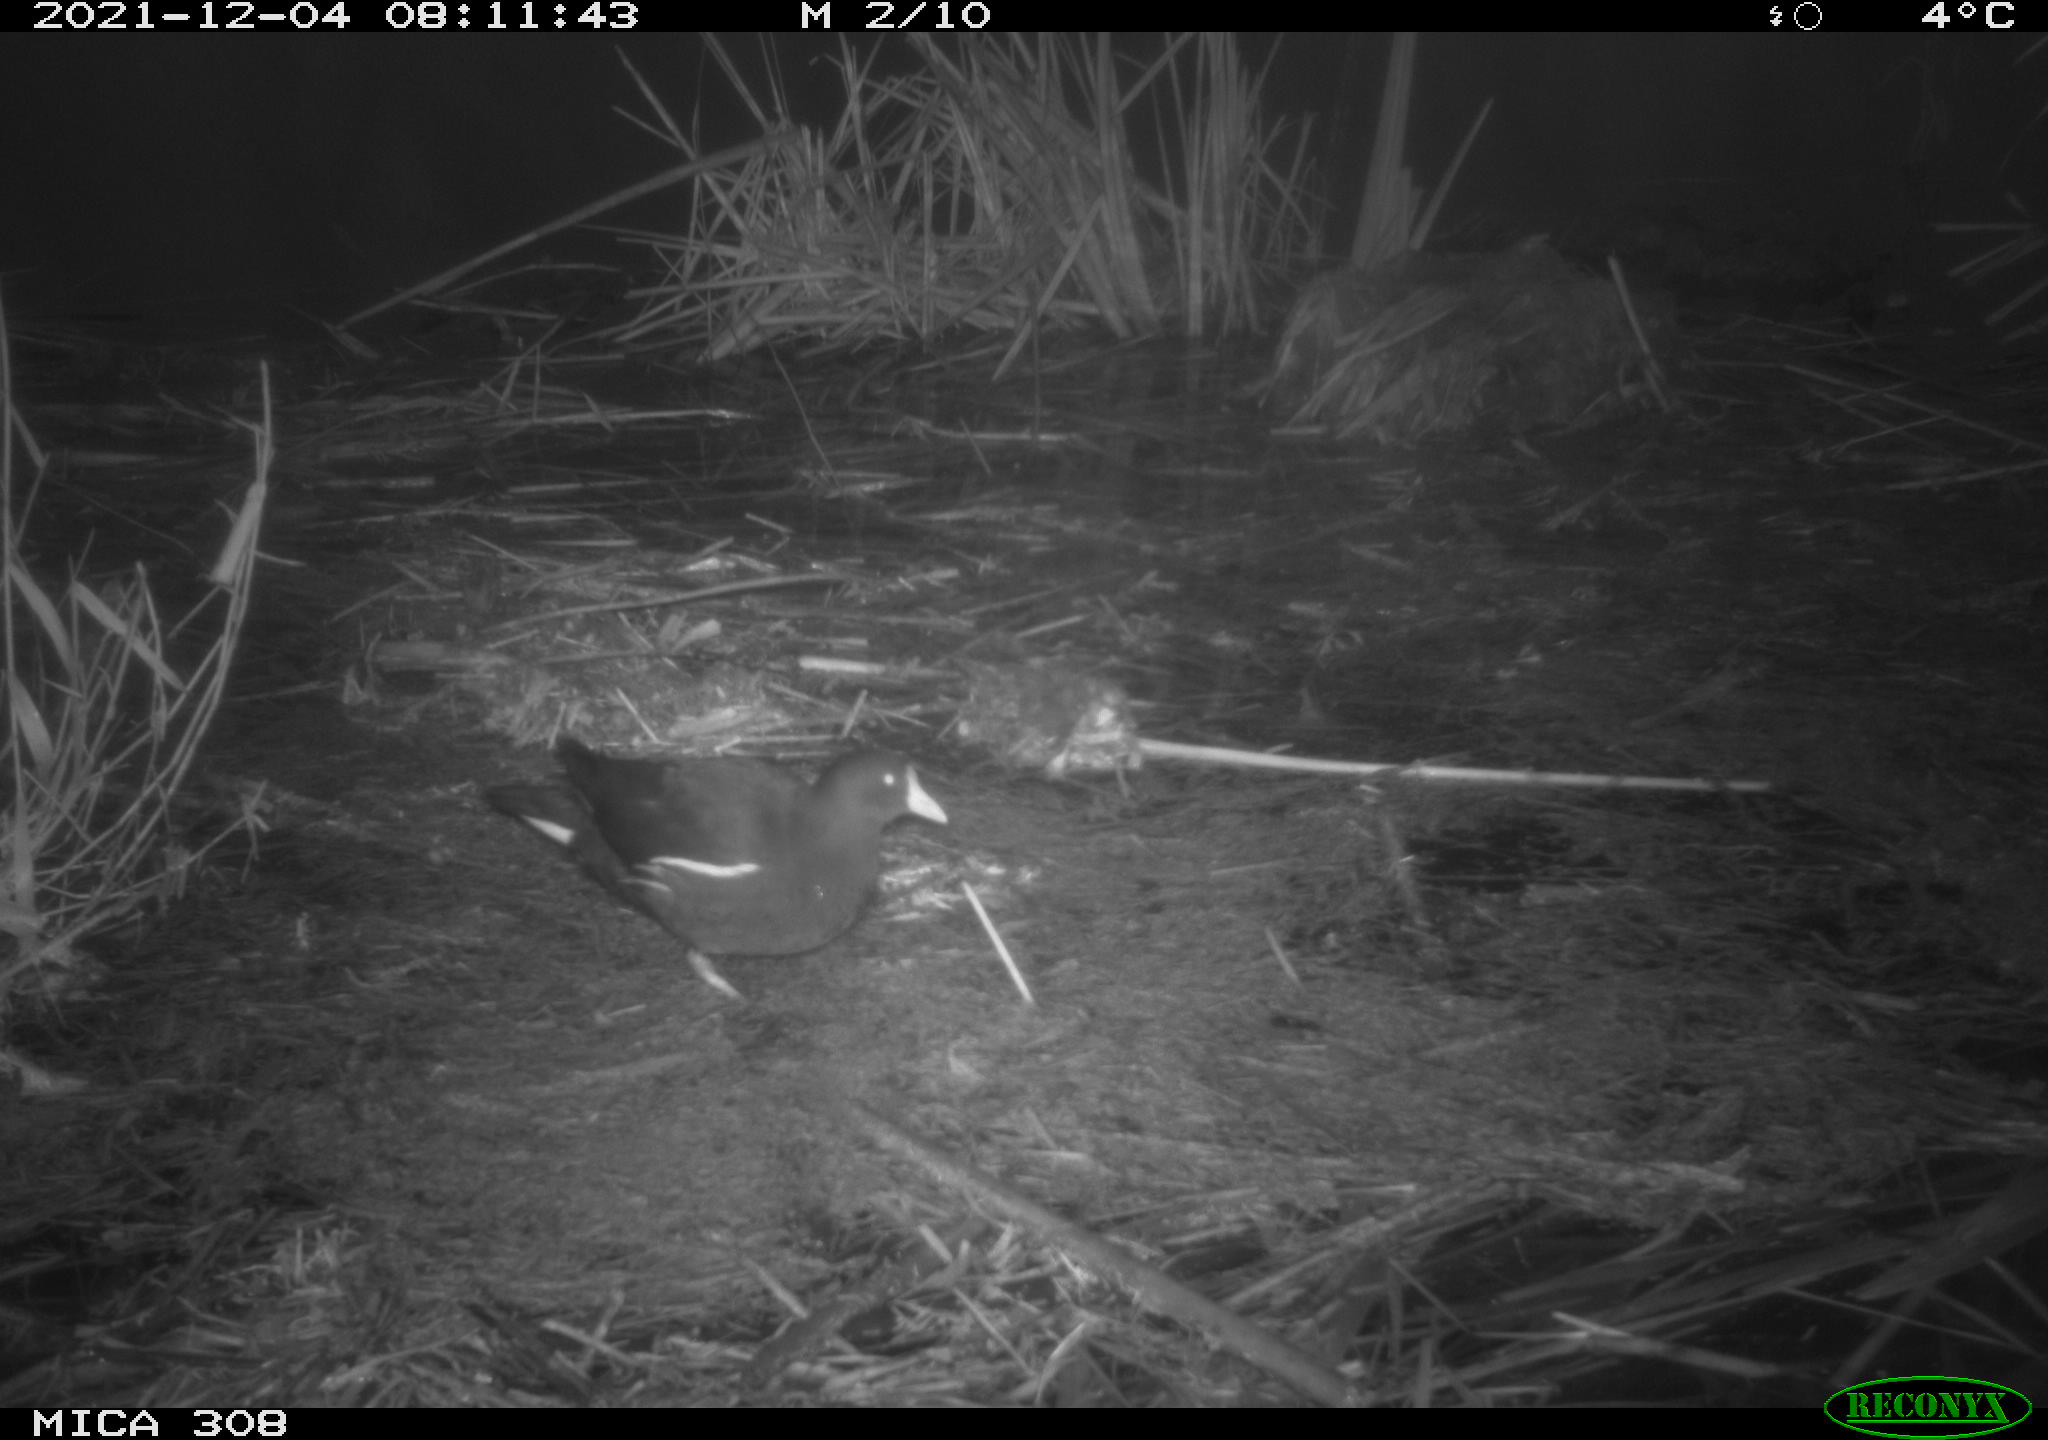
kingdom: Animalia
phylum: Chordata
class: Aves
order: Gruiformes
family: Rallidae
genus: Gallinula
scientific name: Gallinula chloropus
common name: Common moorhen
